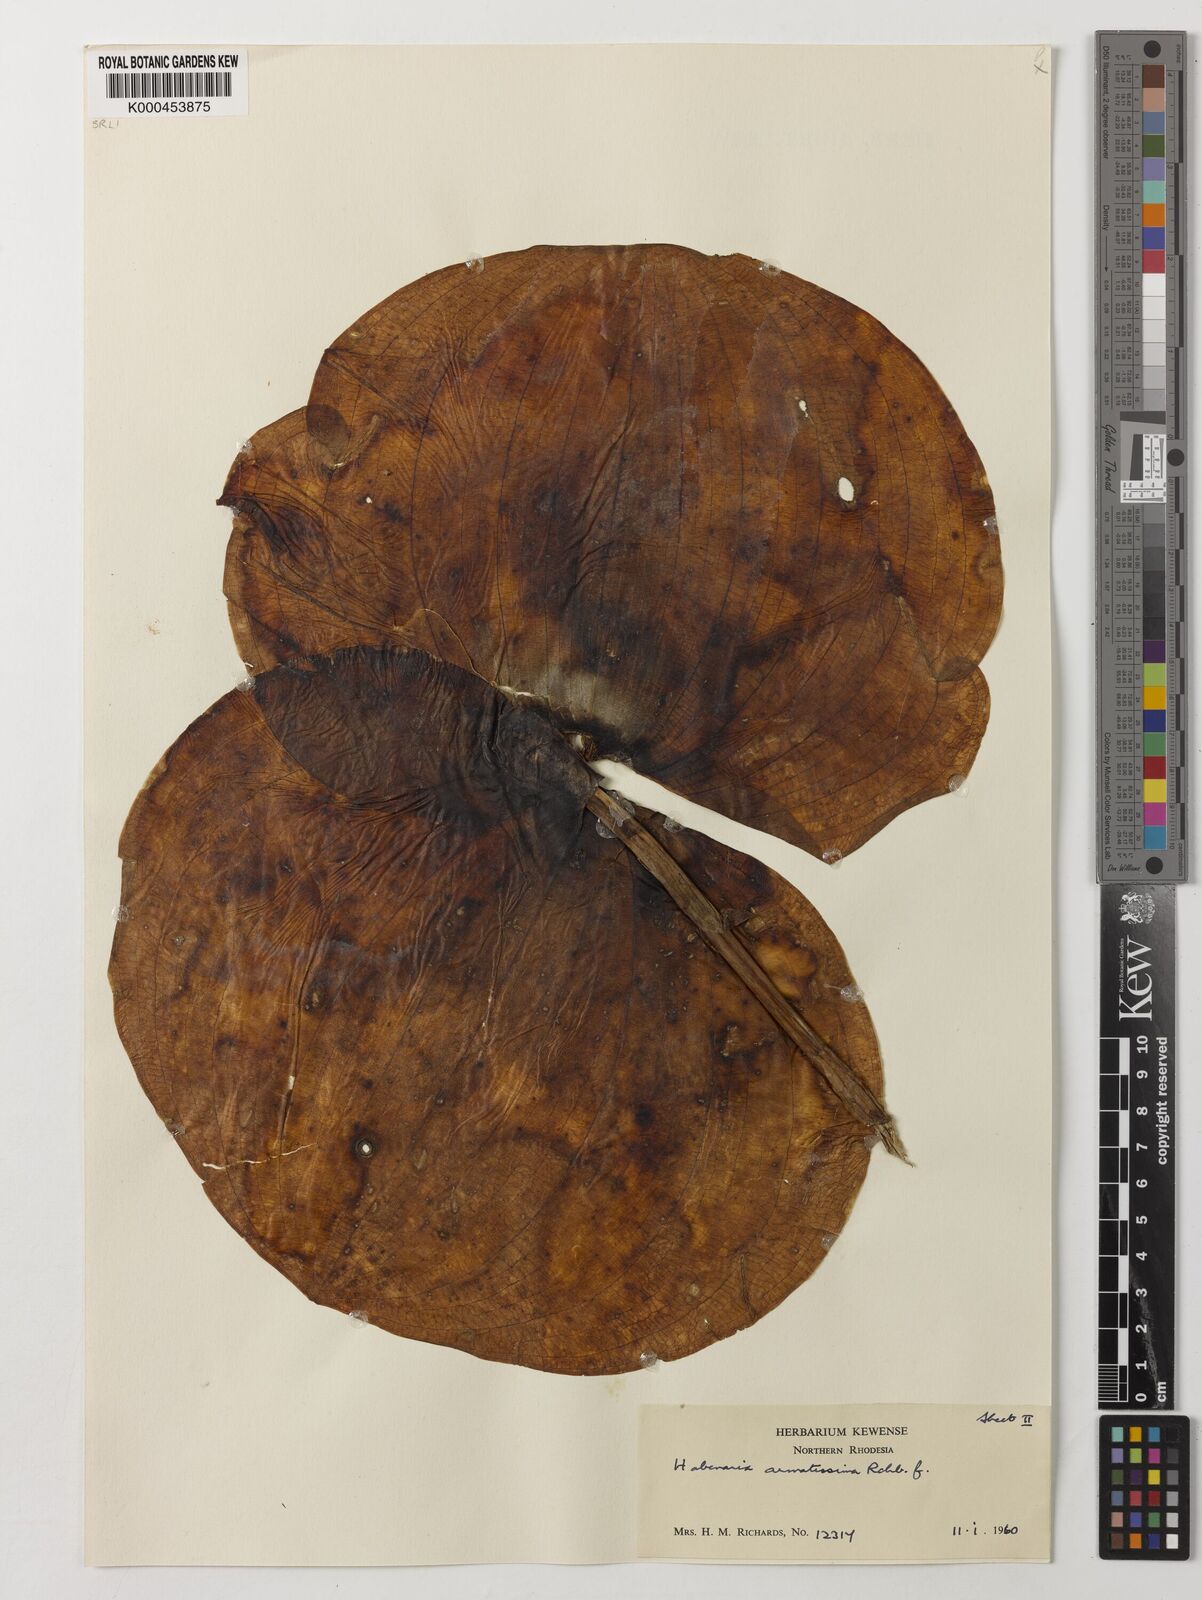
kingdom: Plantae
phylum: Tracheophyta
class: Liliopsida
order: Asparagales
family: Orchidaceae
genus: Habenaria
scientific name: Habenaria armatissima
